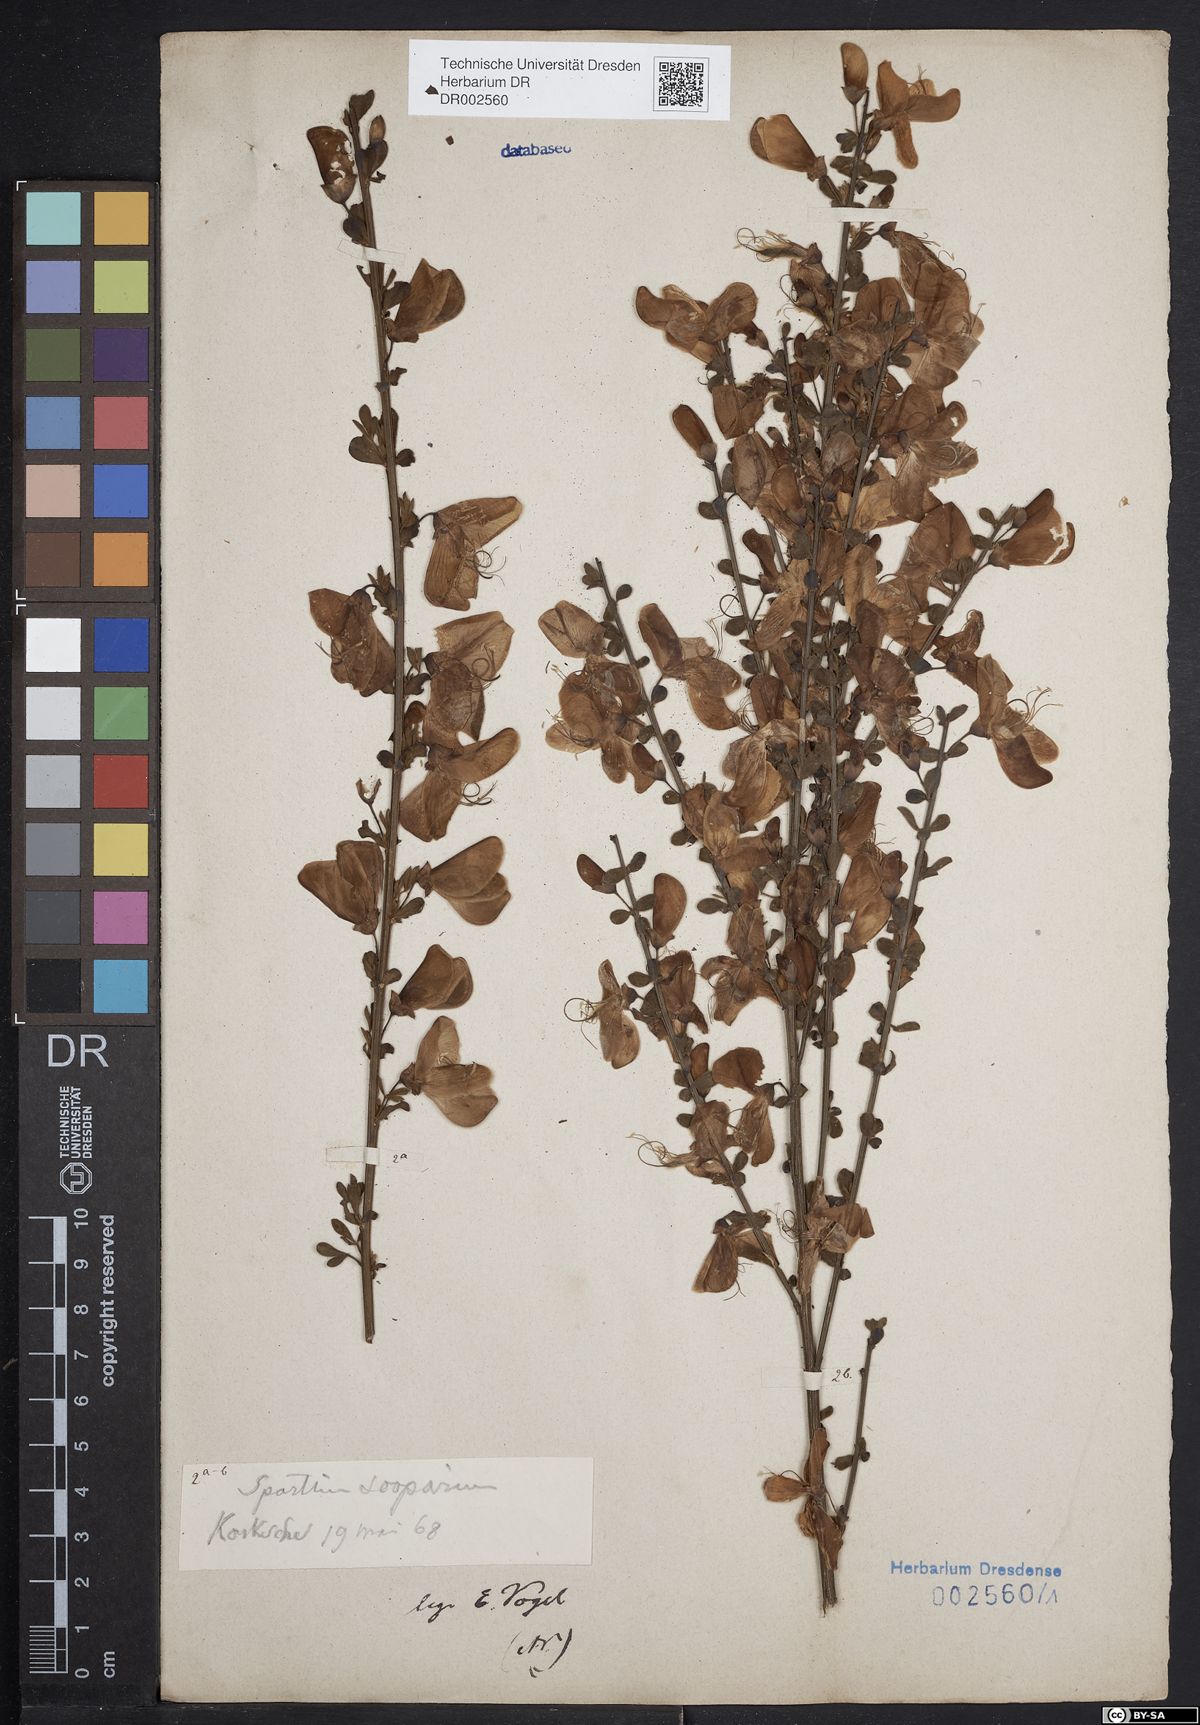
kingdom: Plantae
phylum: Tracheophyta
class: Magnoliopsida
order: Fabales
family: Fabaceae
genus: Cytisus
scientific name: Cytisus scoparius
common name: Scotch broom
